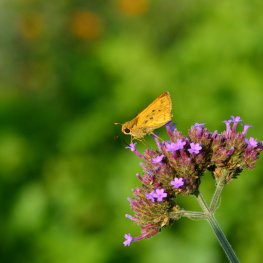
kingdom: Animalia
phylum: Arthropoda
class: Insecta
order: Lepidoptera
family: Hesperiidae
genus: Hylephila
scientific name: Hylephila phyleus
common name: Fiery Skipper
